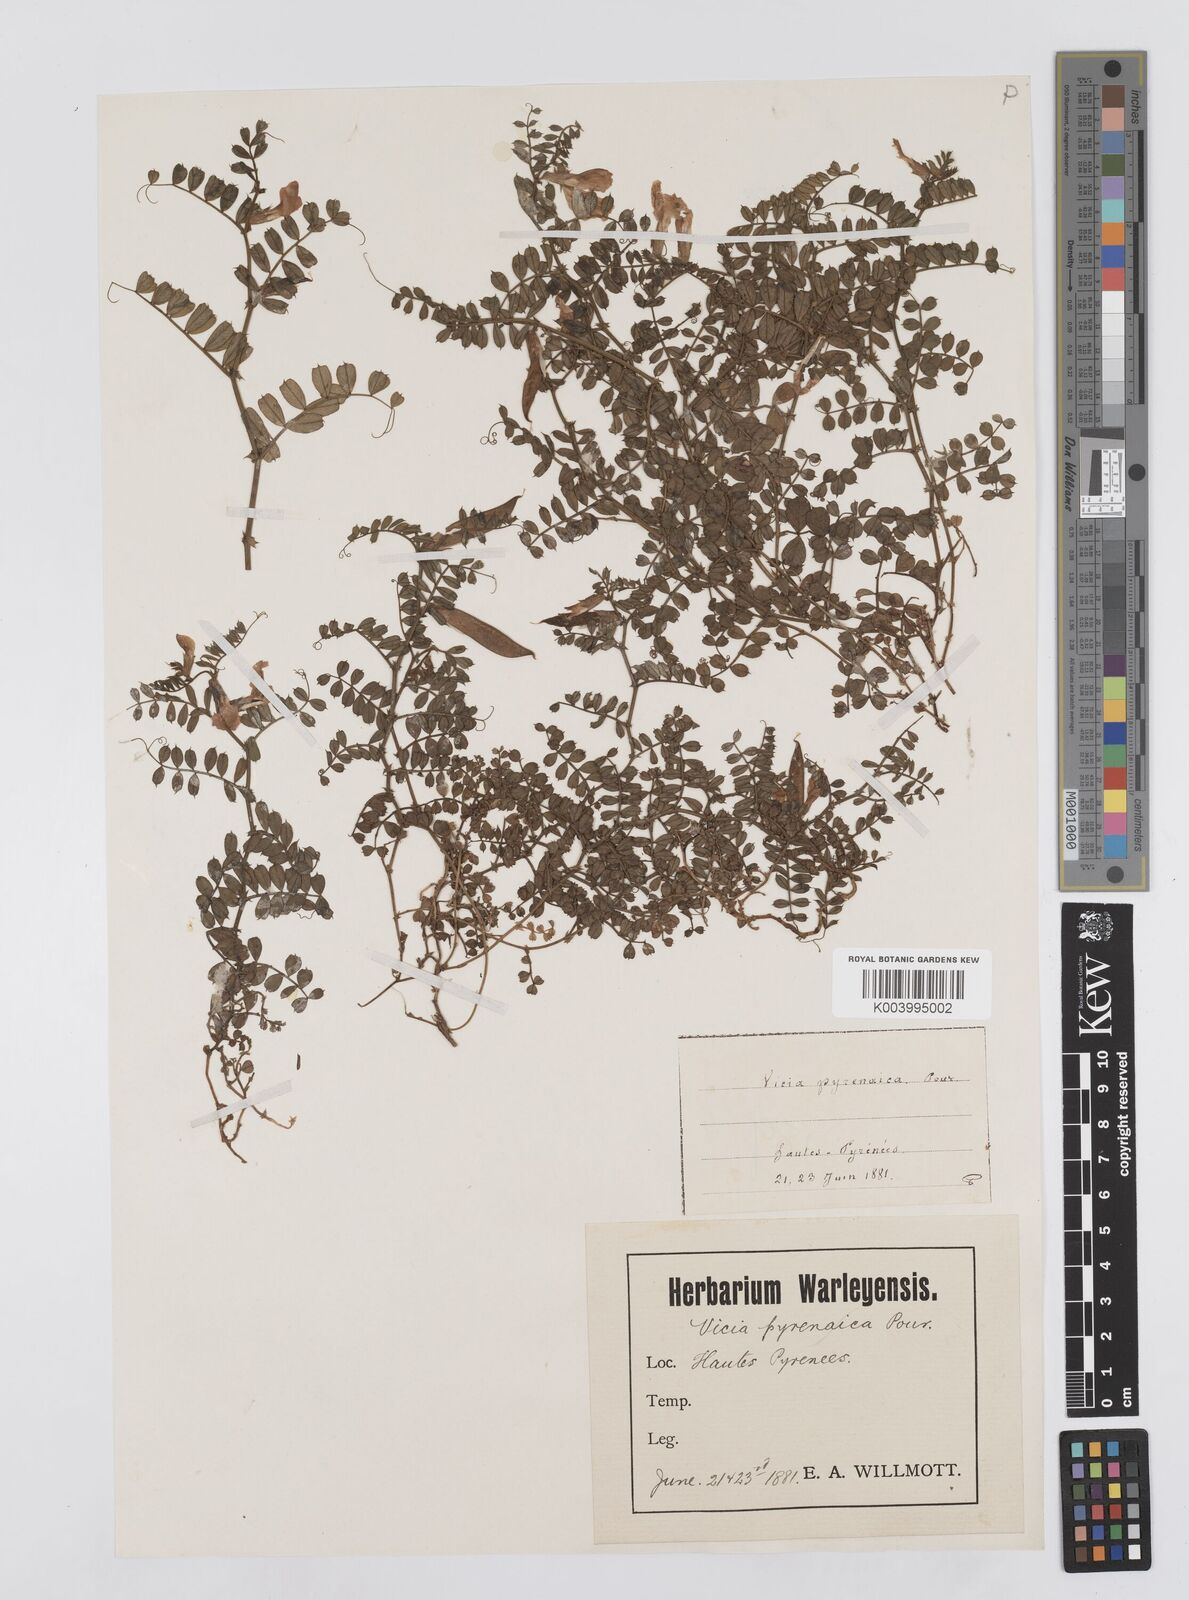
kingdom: Plantae
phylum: Tracheophyta
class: Magnoliopsida
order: Fabales
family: Fabaceae
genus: Vicia
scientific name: Vicia pyrenaica
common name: Pyrenean vetch
